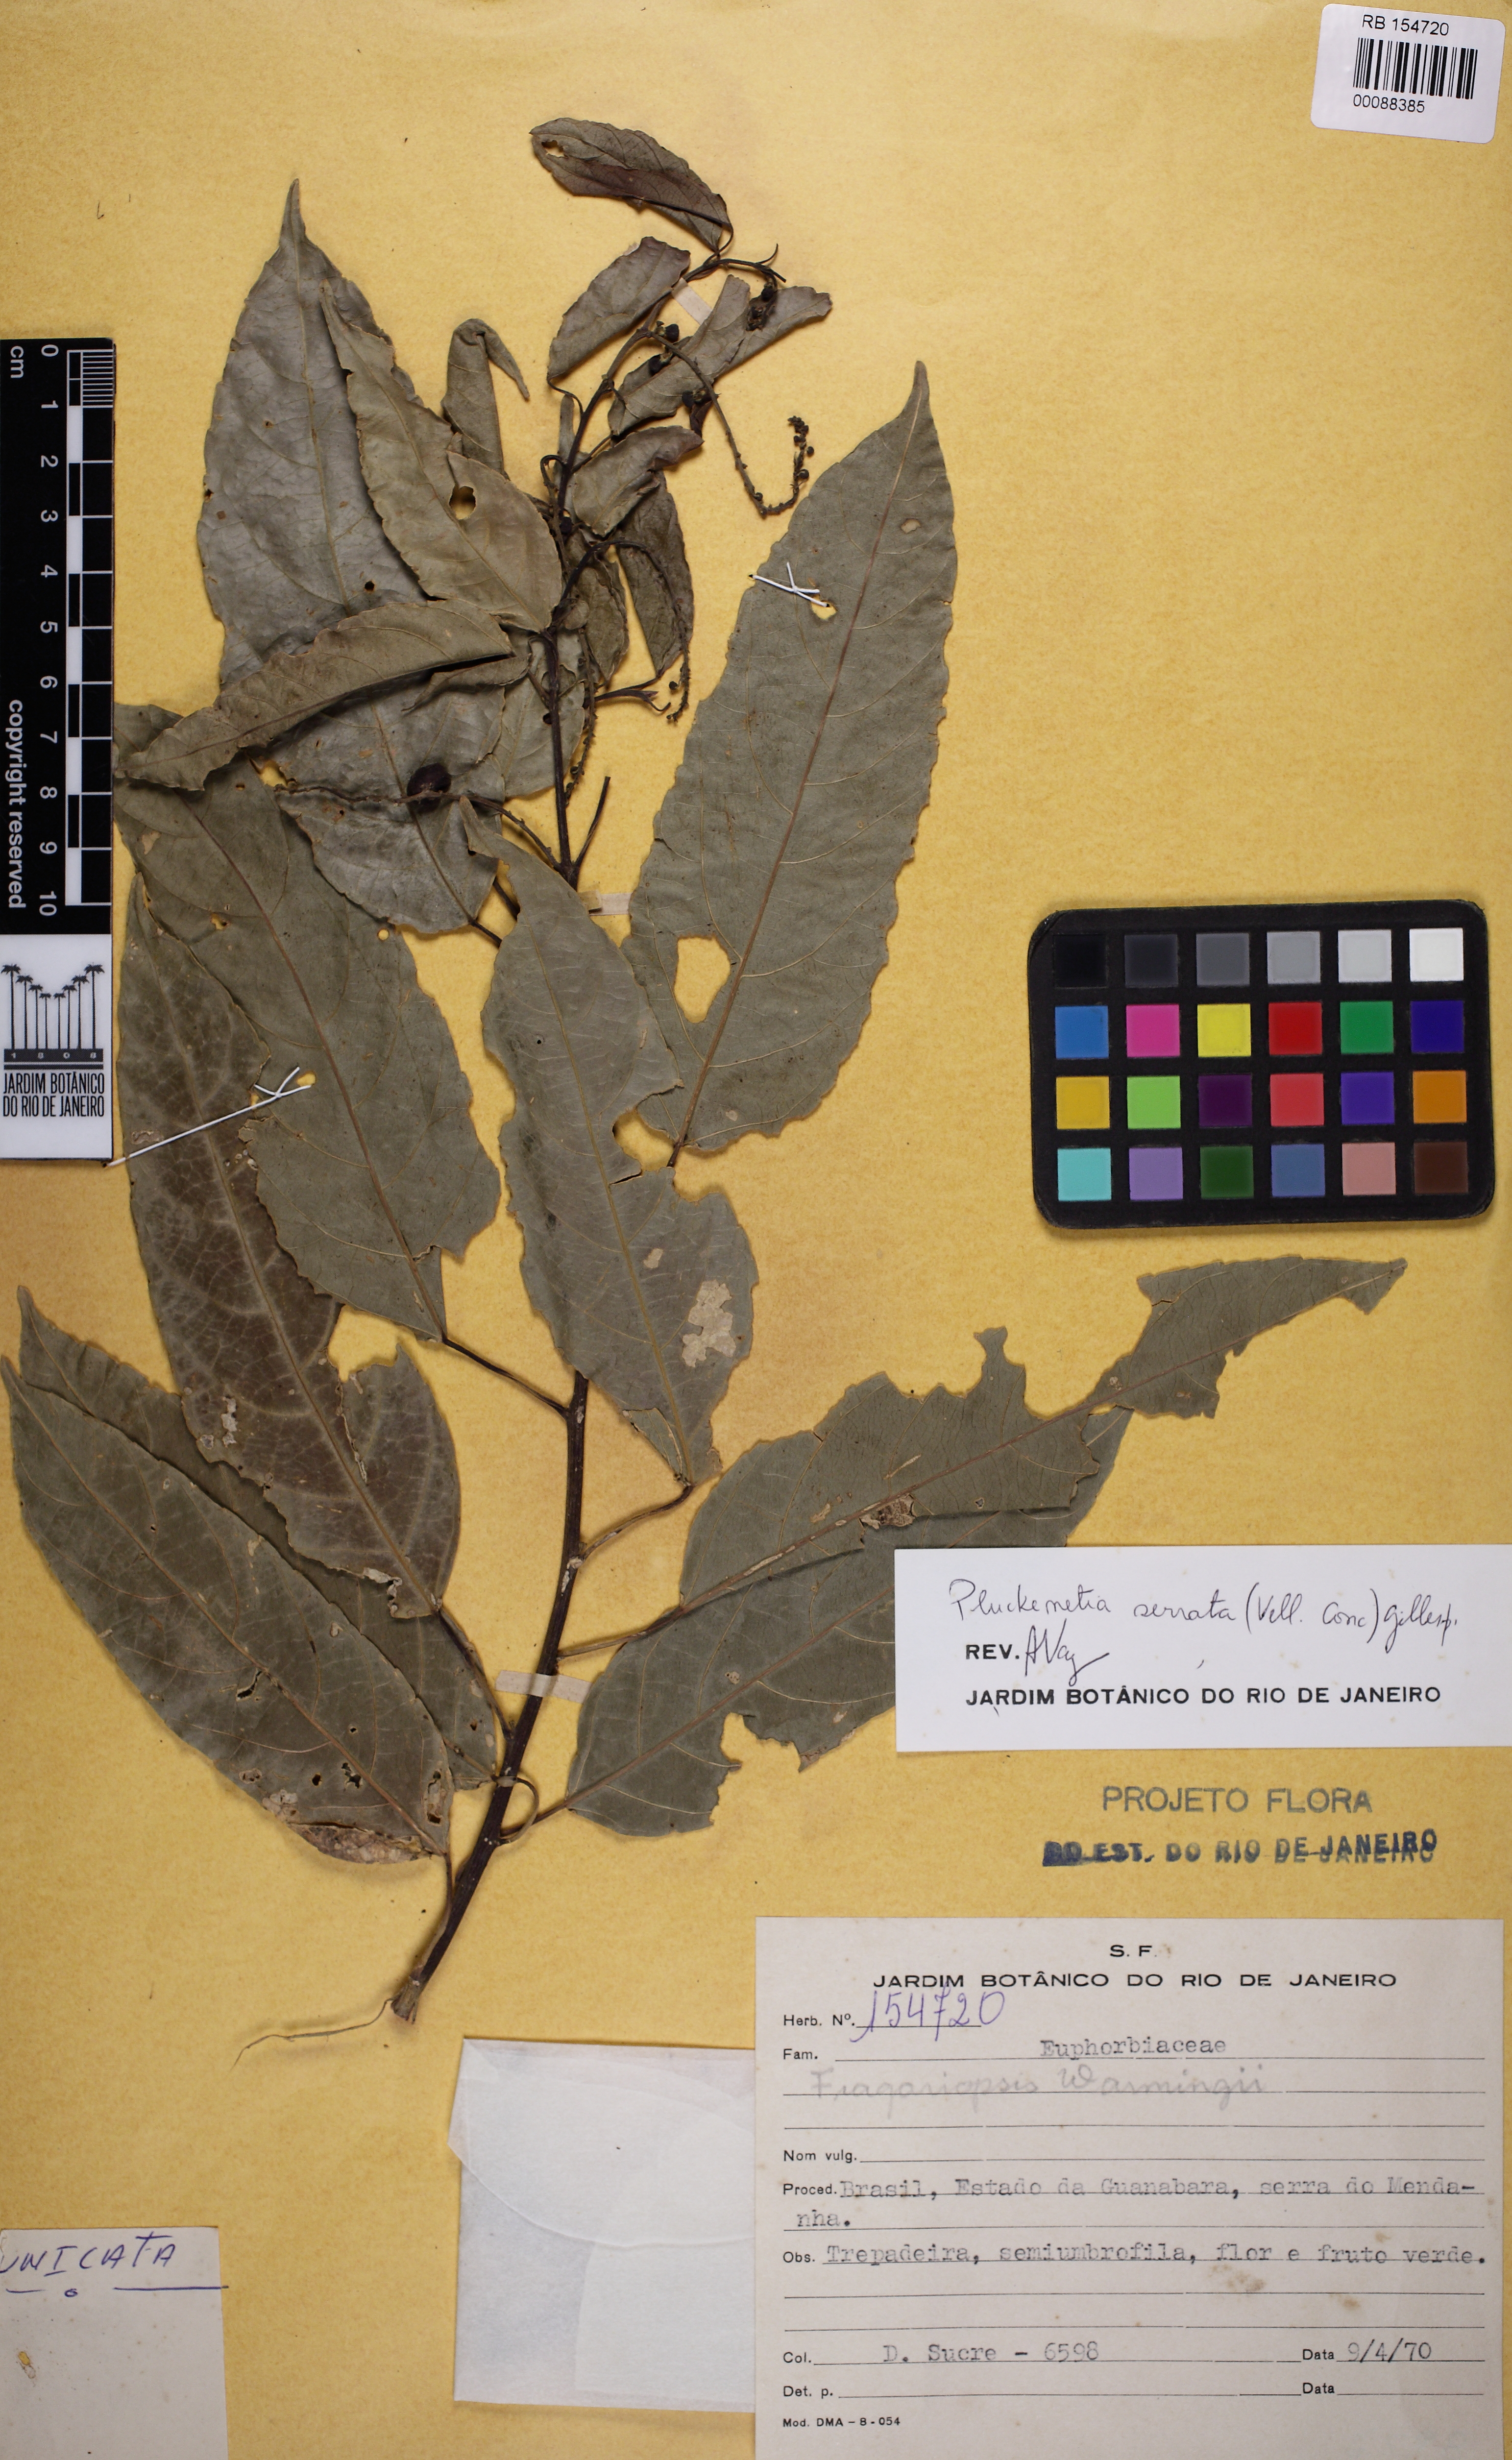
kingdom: Plantae
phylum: Tracheophyta
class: Magnoliopsida
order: Malpighiales
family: Euphorbiaceae
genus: Plukenetia
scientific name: Plukenetia serrata
